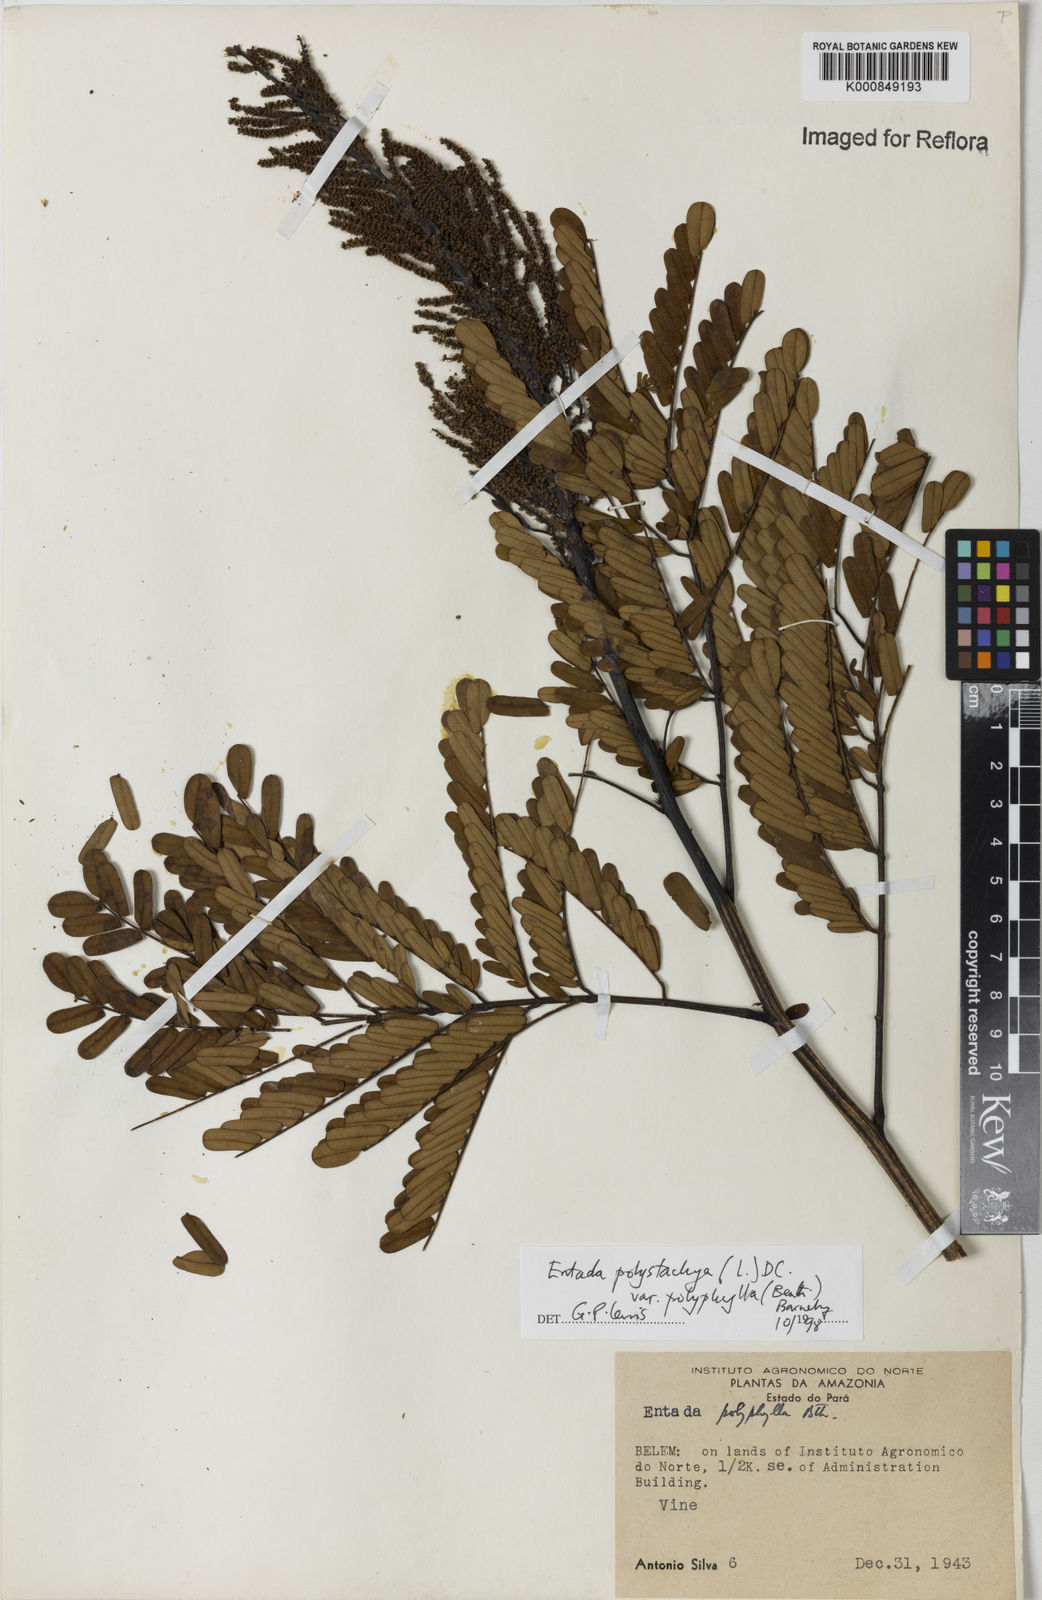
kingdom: Plantae
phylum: Tracheophyta
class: Magnoliopsida
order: Fabales
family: Fabaceae
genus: Entada
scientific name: Entada polyphylla
